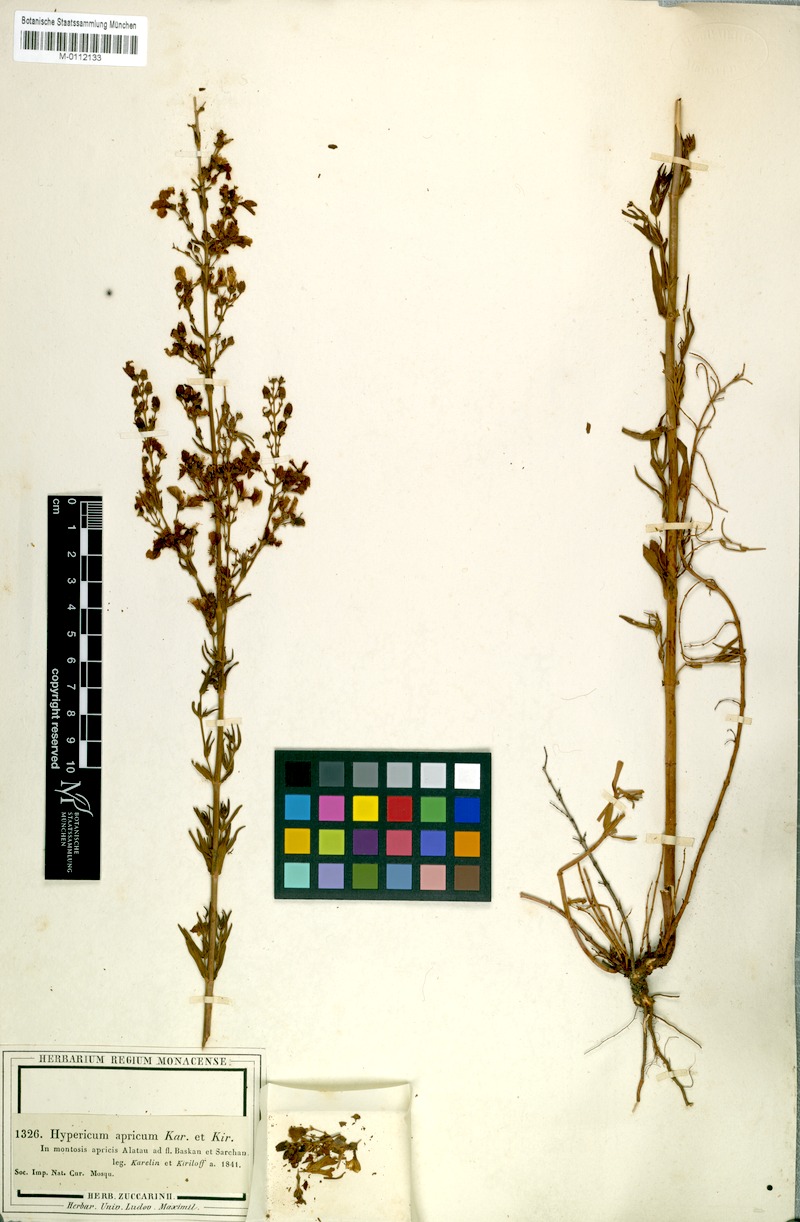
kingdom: Plantae
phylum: Tracheophyta
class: Magnoliopsida
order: Malpighiales
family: Hypericaceae
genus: Hypericum
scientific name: Hypericum apricum
